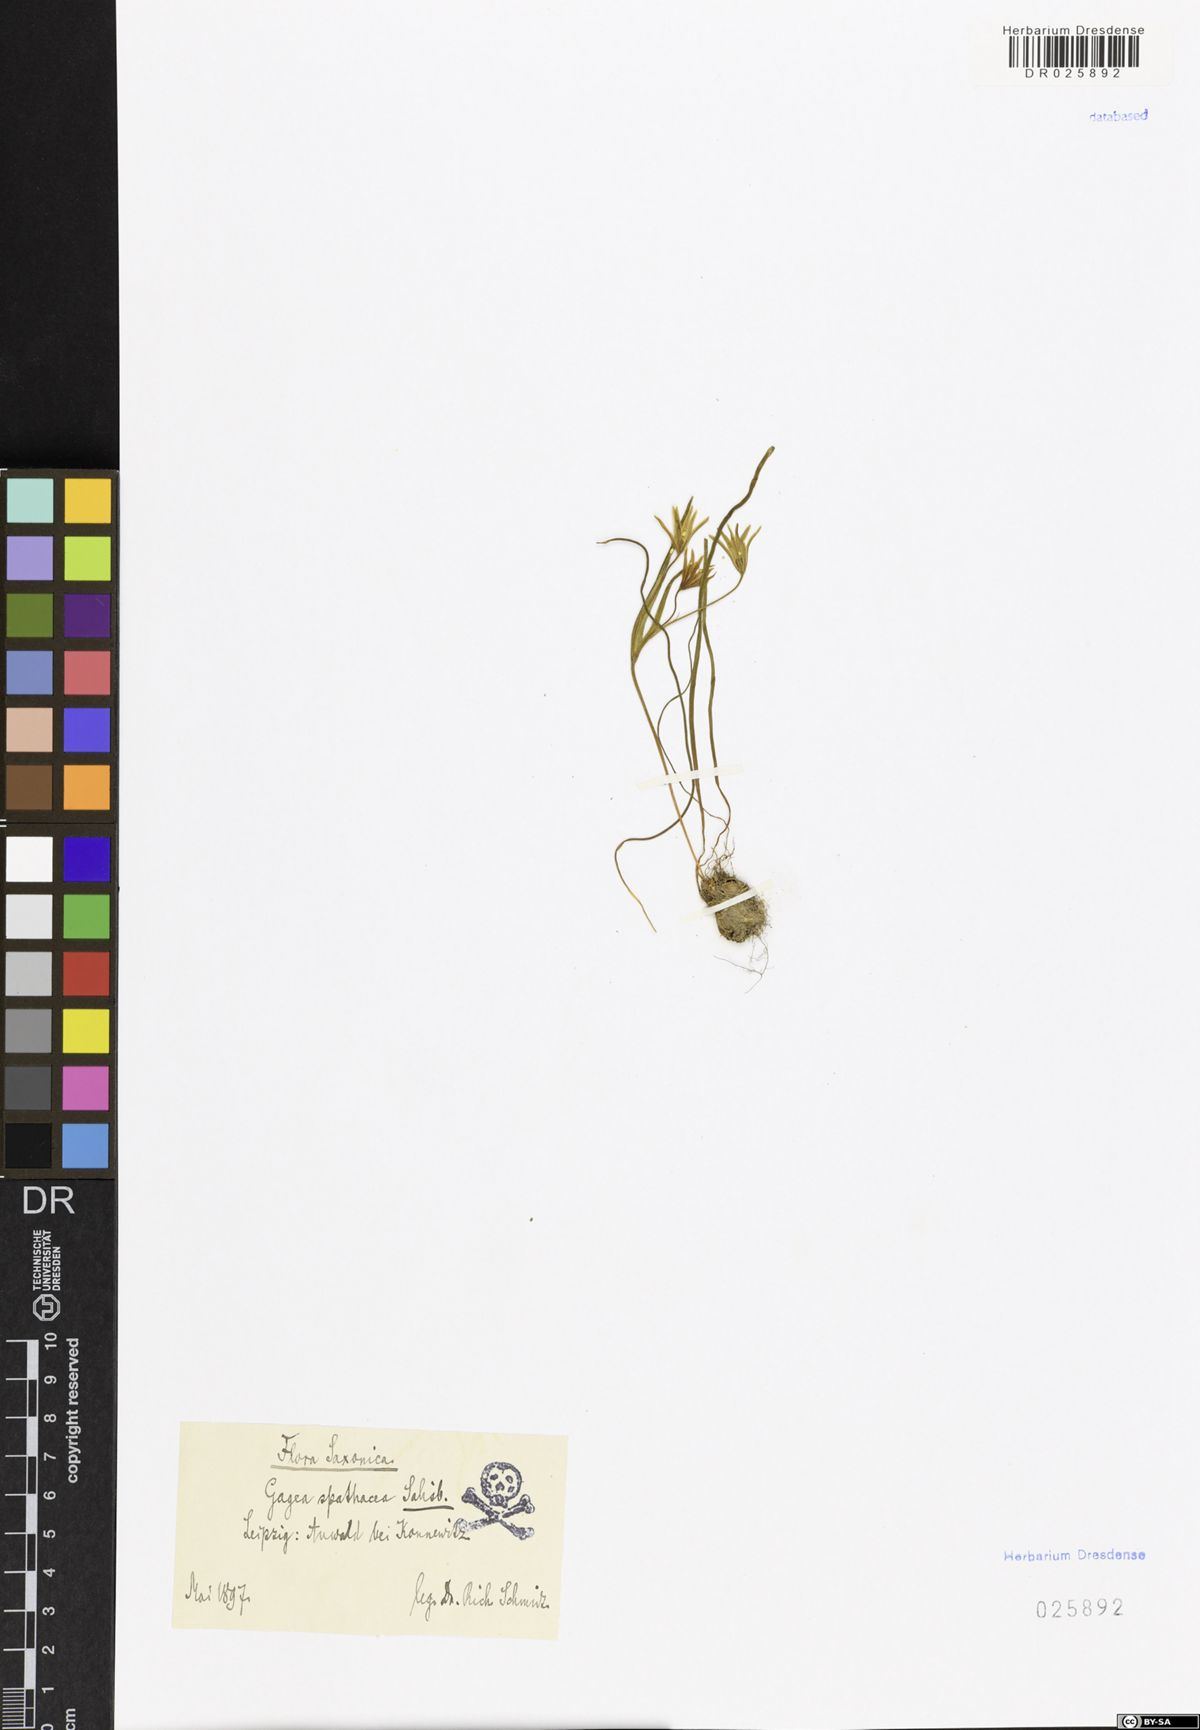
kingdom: Plantae
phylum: Tracheophyta
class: Liliopsida
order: Liliales
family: Liliaceae
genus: Gagea
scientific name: Gagea spathacea
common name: Belgian gagea
